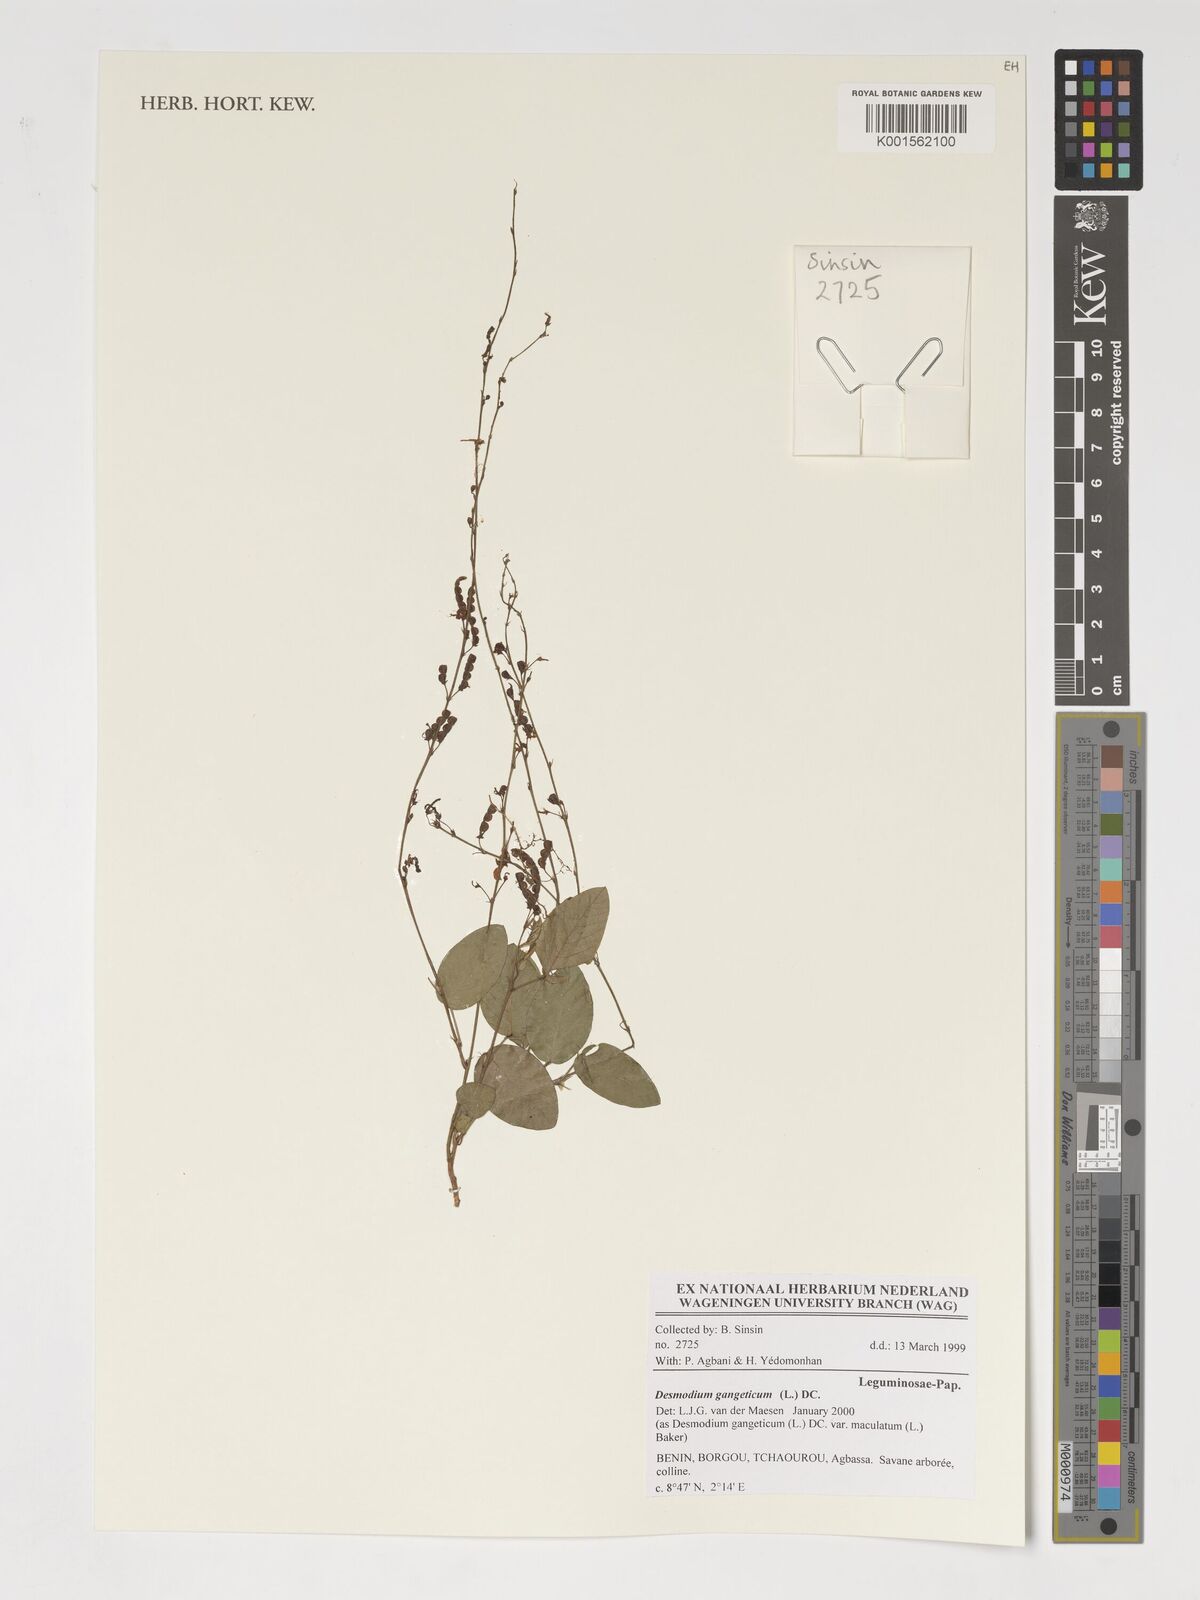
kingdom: Plantae
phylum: Tracheophyta
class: Magnoliopsida
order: Fabales
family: Fabaceae
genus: Pleurolobus
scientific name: Pleurolobus gangeticus
